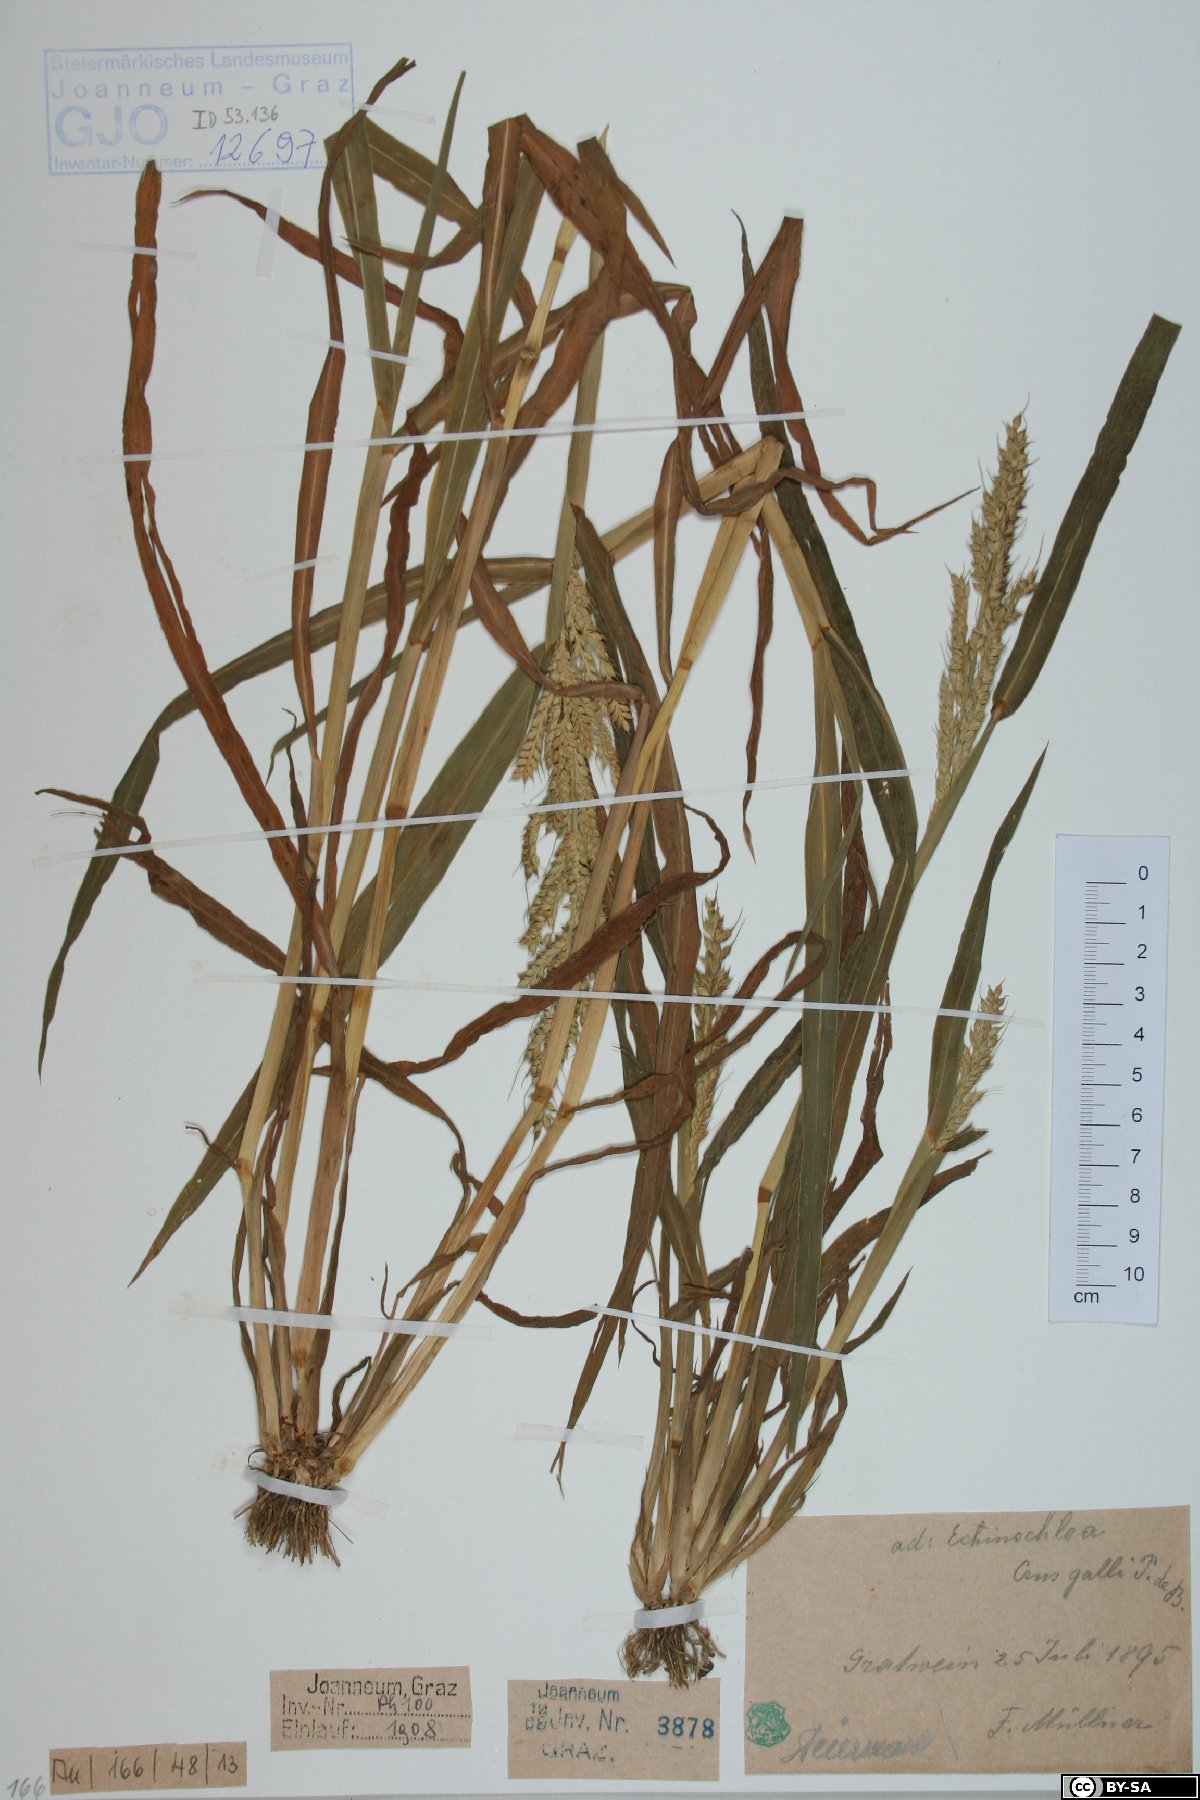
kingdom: Plantae
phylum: Tracheophyta
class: Liliopsida
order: Poales
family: Poaceae
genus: Echinochloa
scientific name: Echinochloa crus-galli
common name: Cockspur
